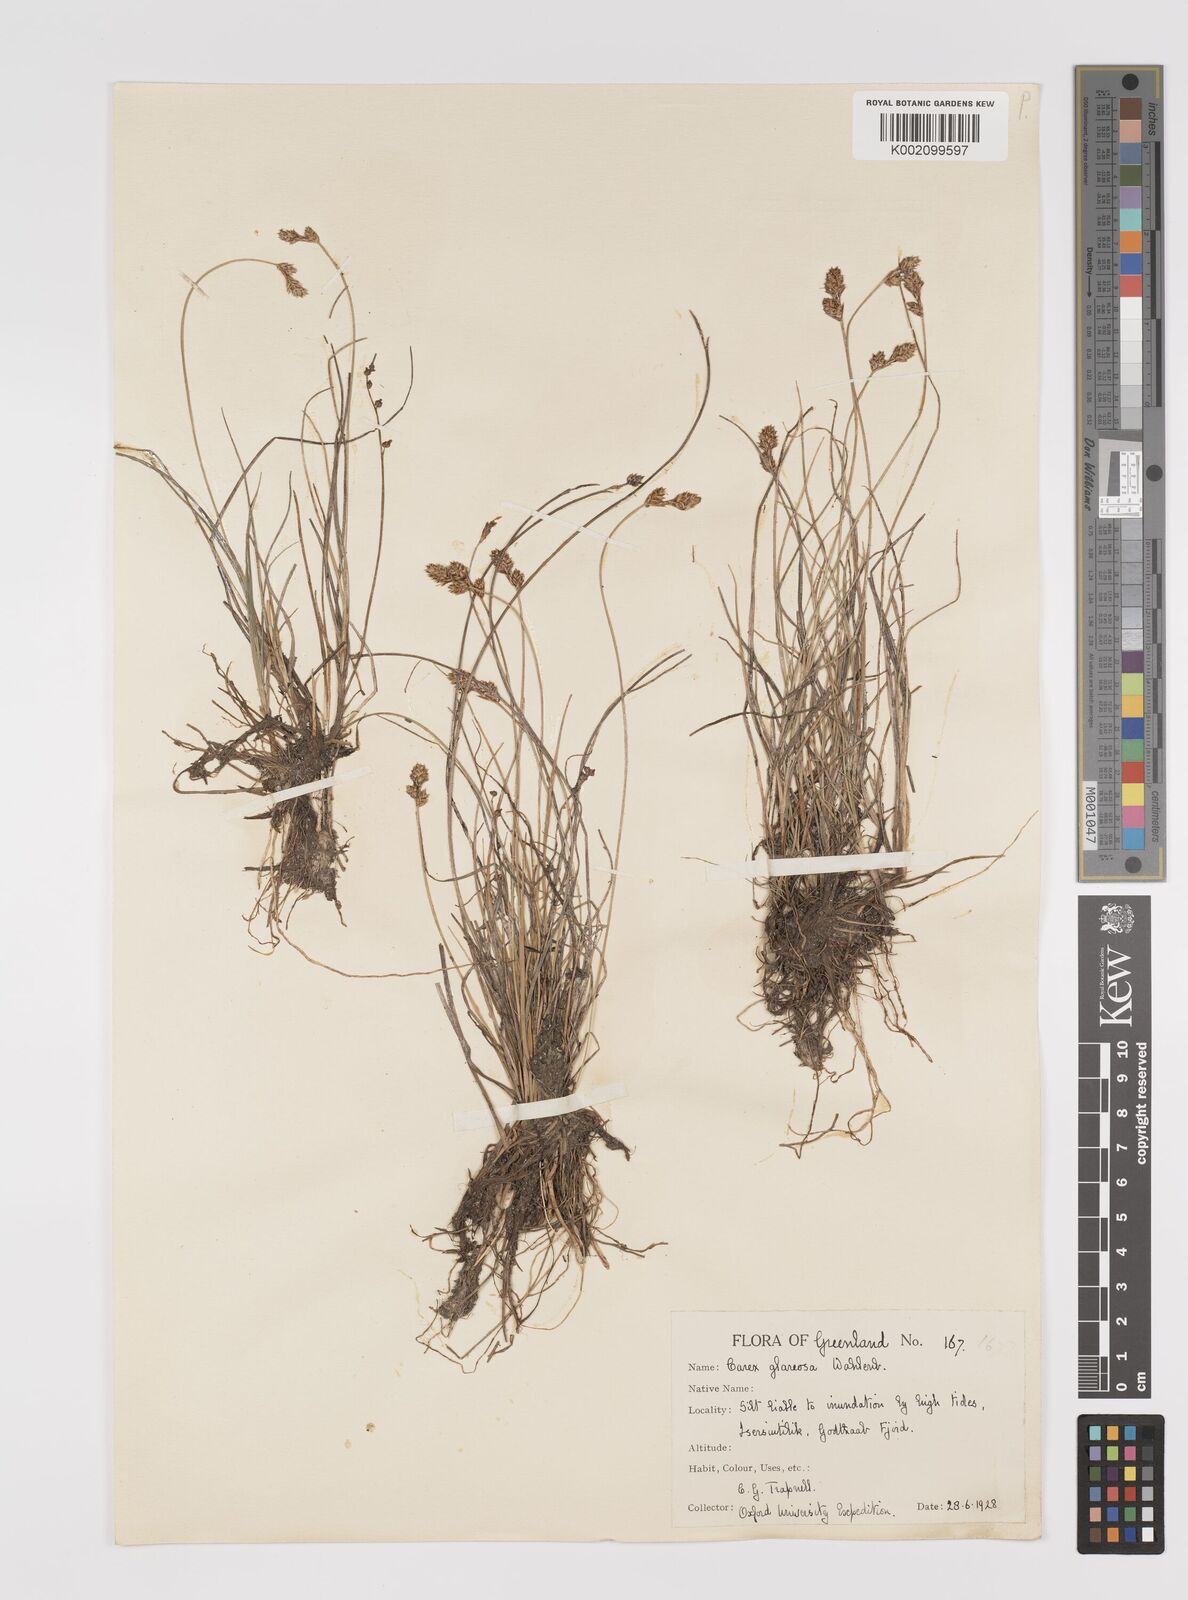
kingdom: Plantae
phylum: Tracheophyta
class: Liliopsida
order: Poales
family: Cyperaceae
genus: Carex
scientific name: Carex glareosa
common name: Clustered sedge
